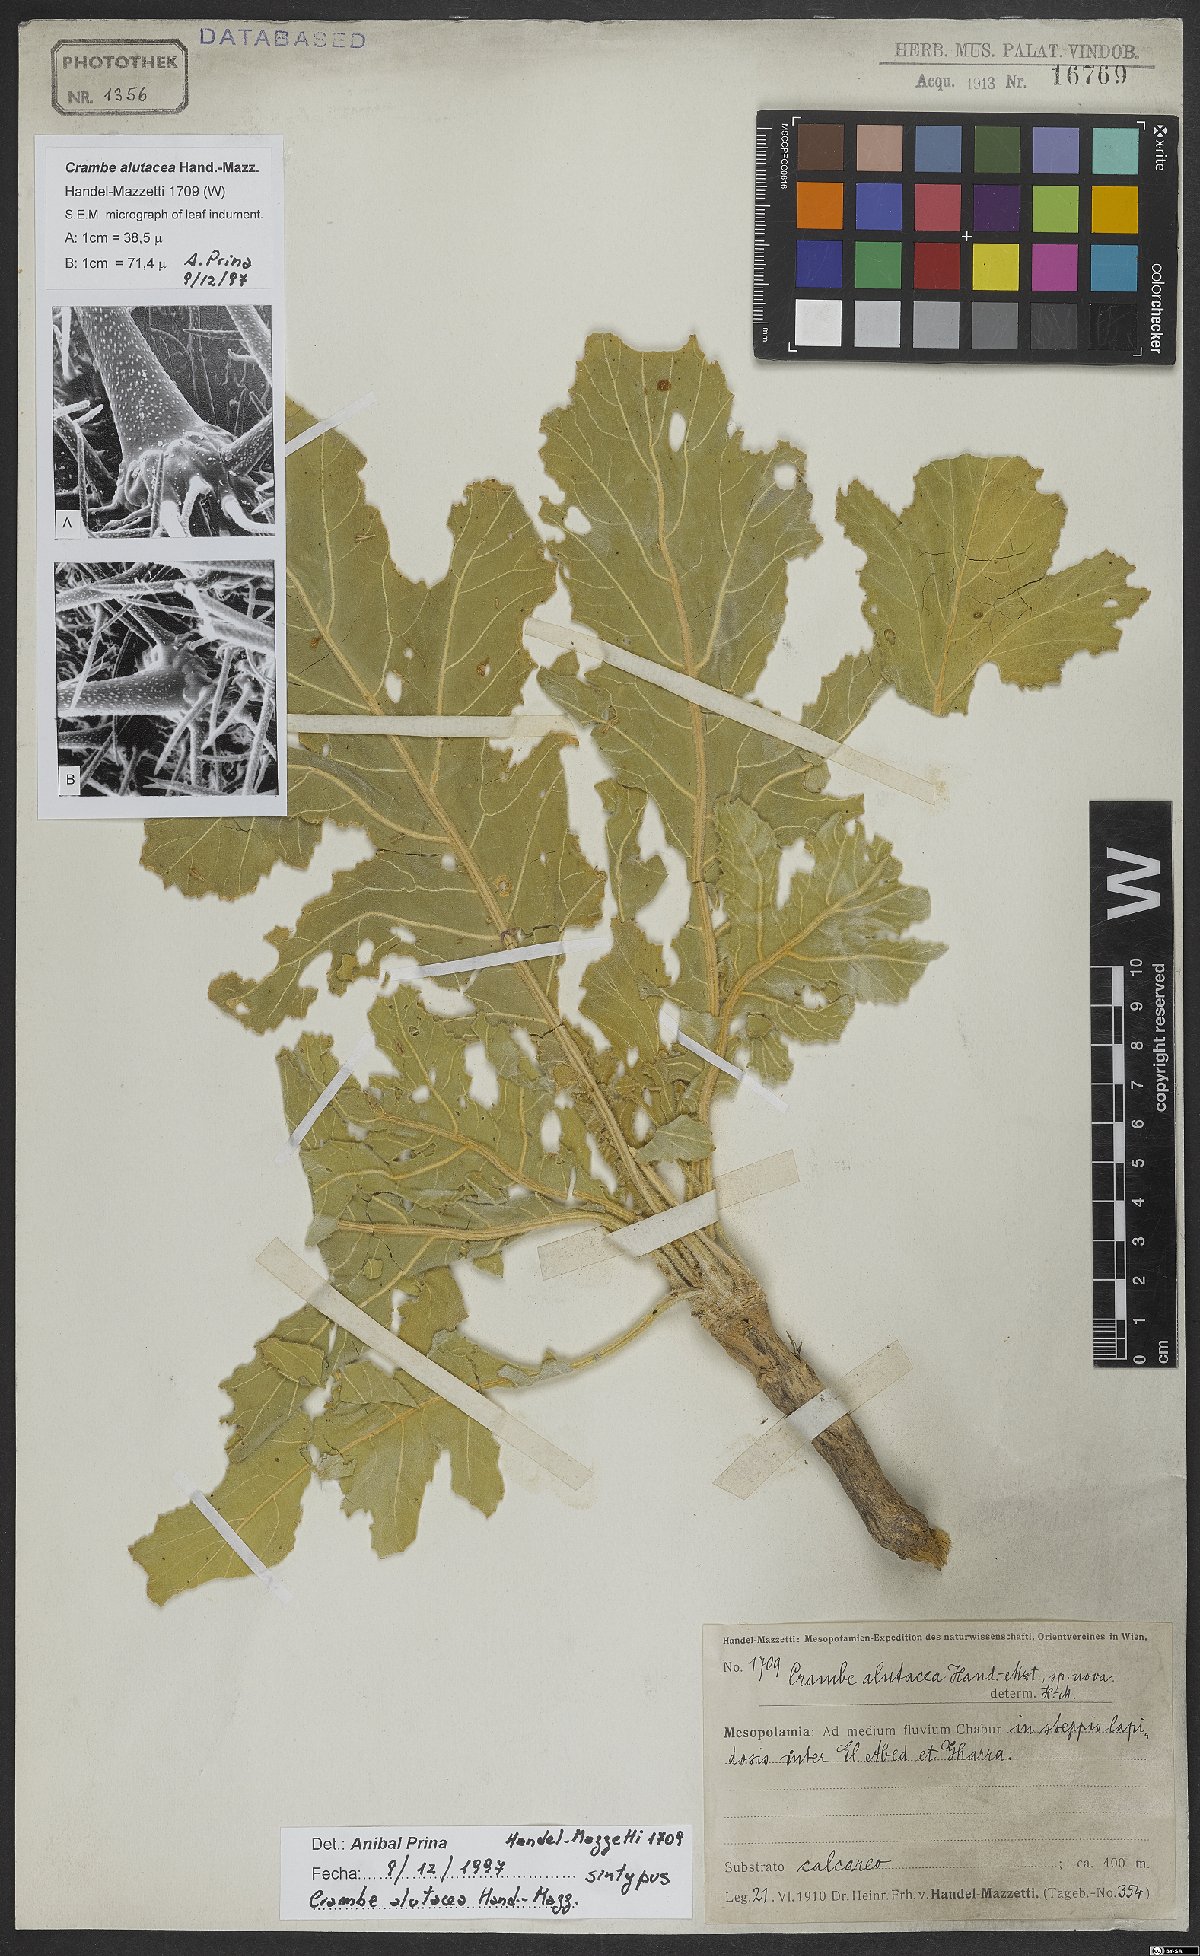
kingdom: Plantae
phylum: Tracheophyta
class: Magnoliopsida
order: Brassicales
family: Brassicaceae
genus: Crambe
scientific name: Crambe alutacea
